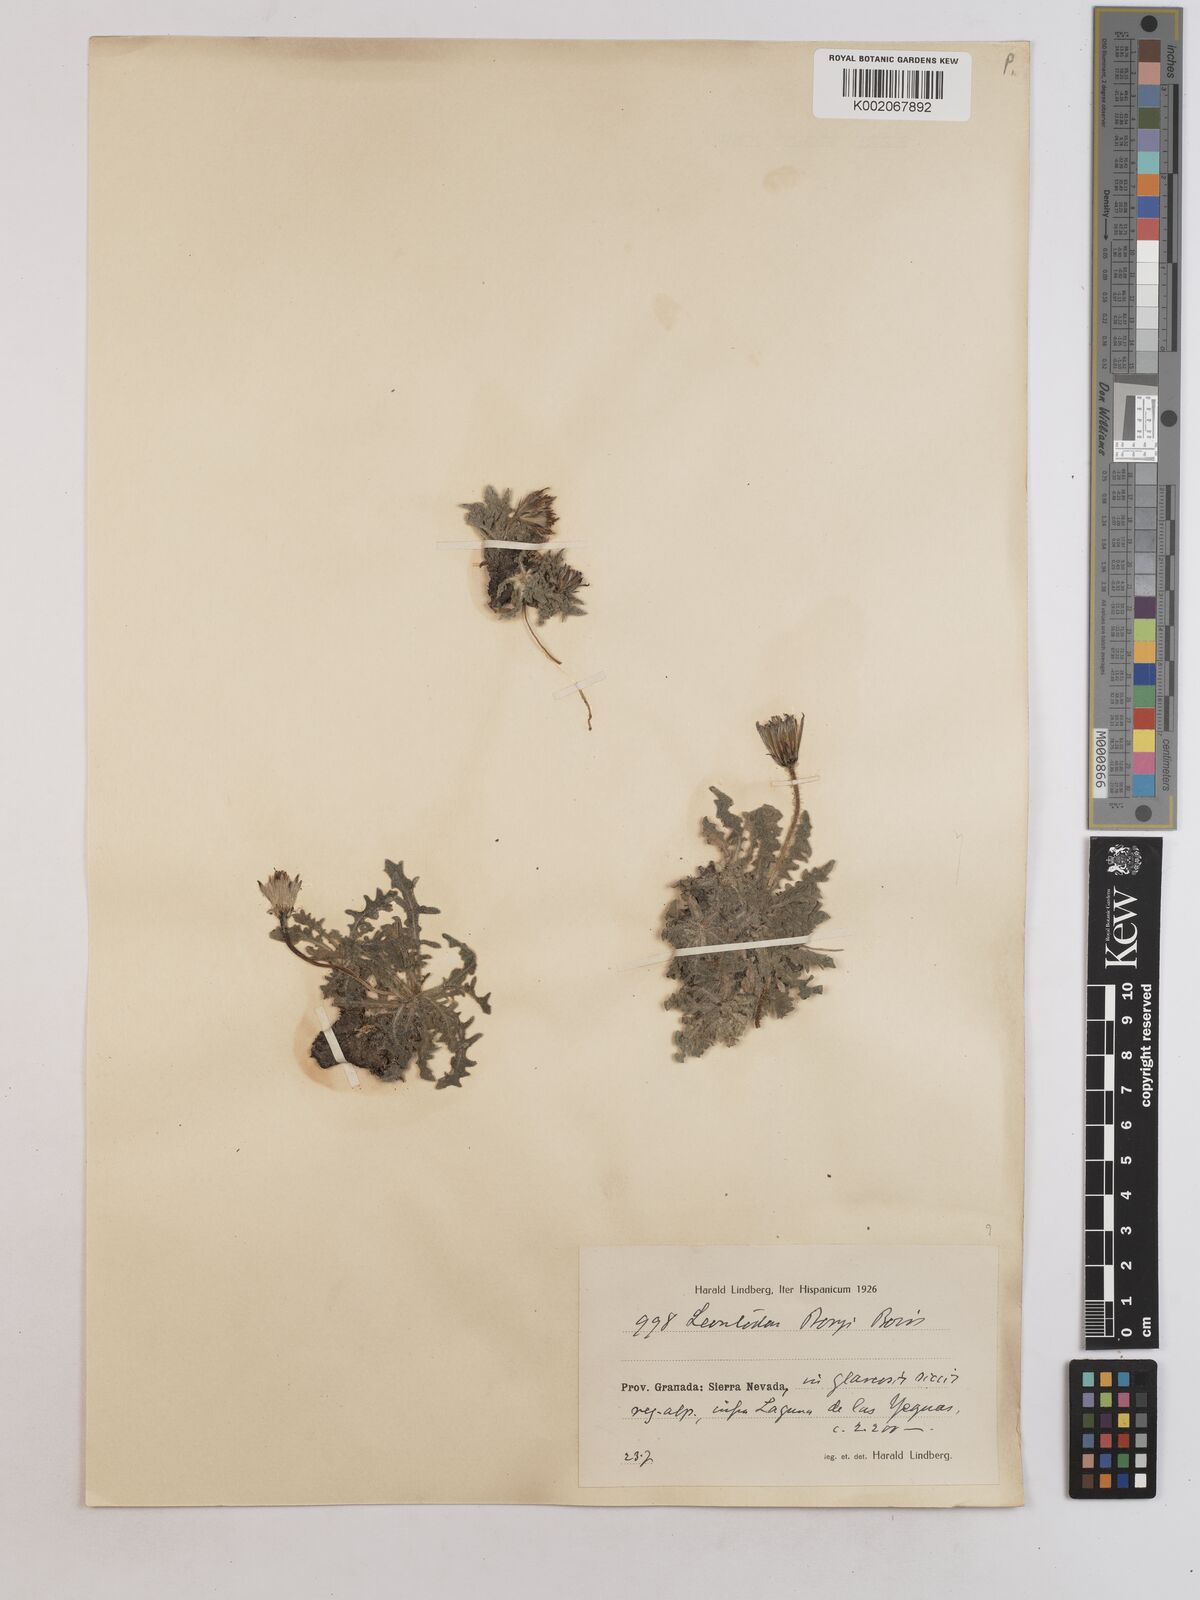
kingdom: Plantae
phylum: Tracheophyta
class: Magnoliopsida
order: Asterales
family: Asteraceae
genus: Leontodon
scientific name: Leontodon boryi
